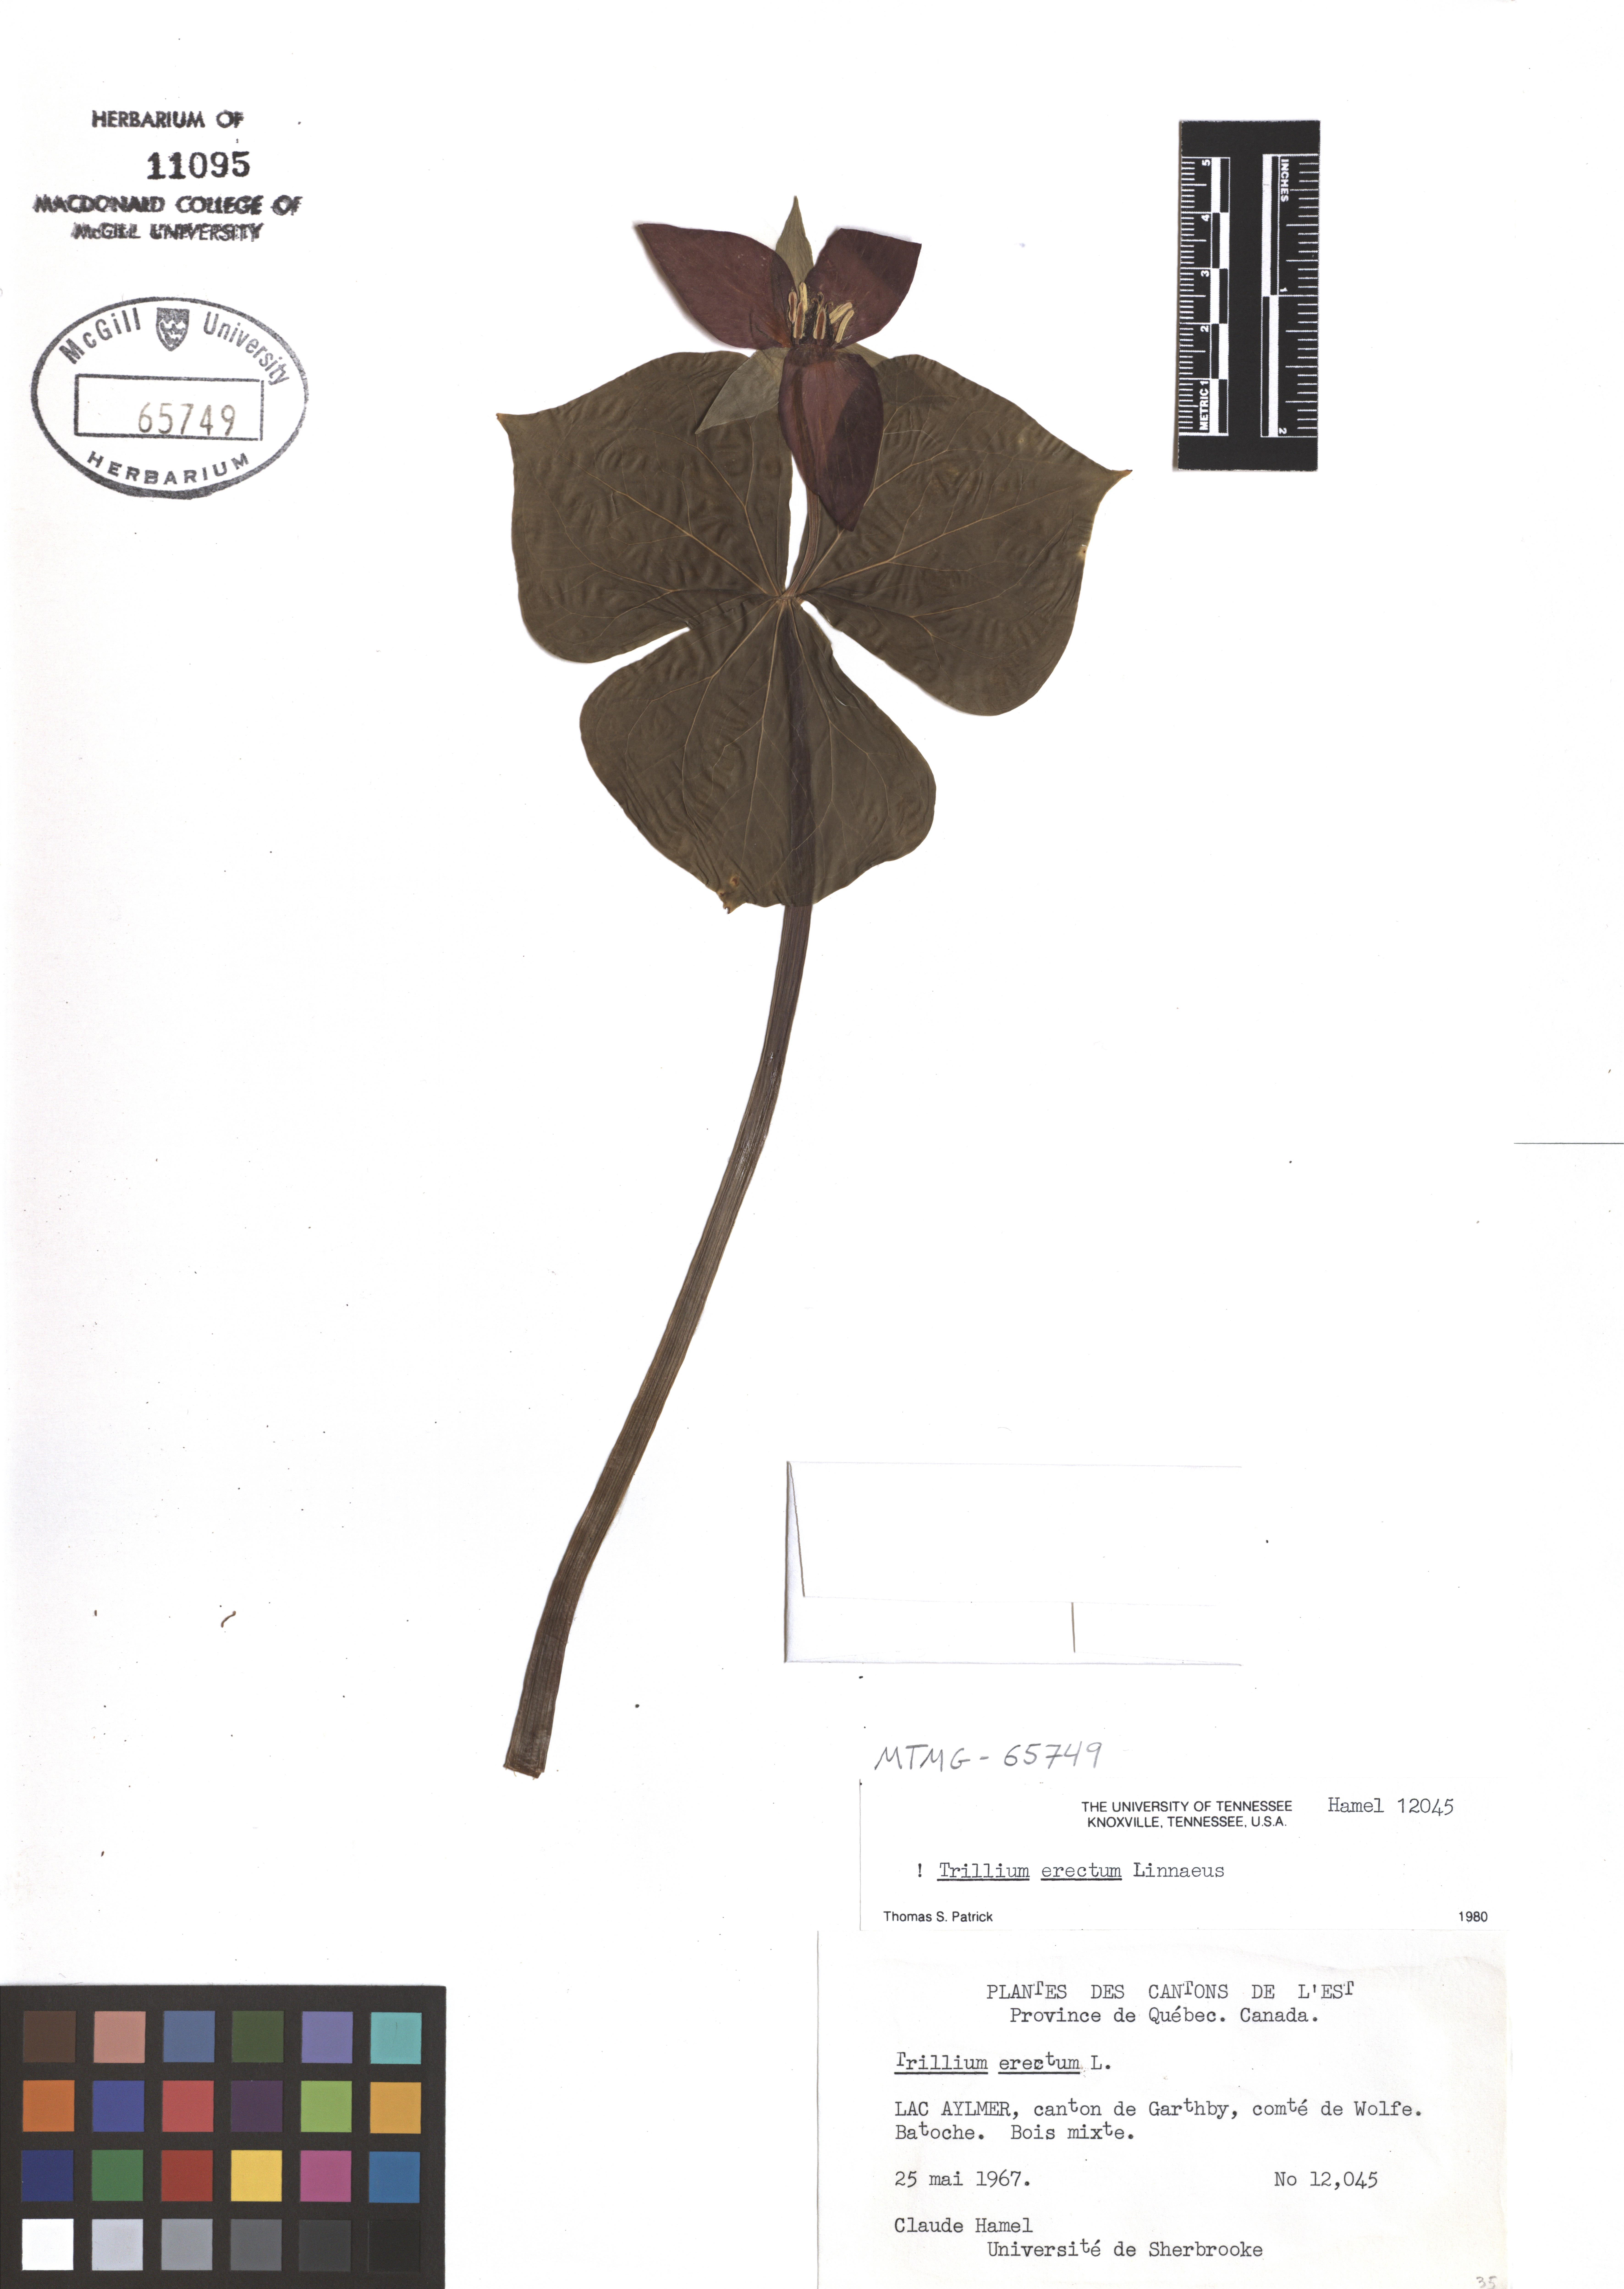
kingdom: Plantae
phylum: Tracheophyta
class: Liliopsida
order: Liliales
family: Melanthiaceae
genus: Trillium
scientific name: Trillium erectum
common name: Purple trillium
